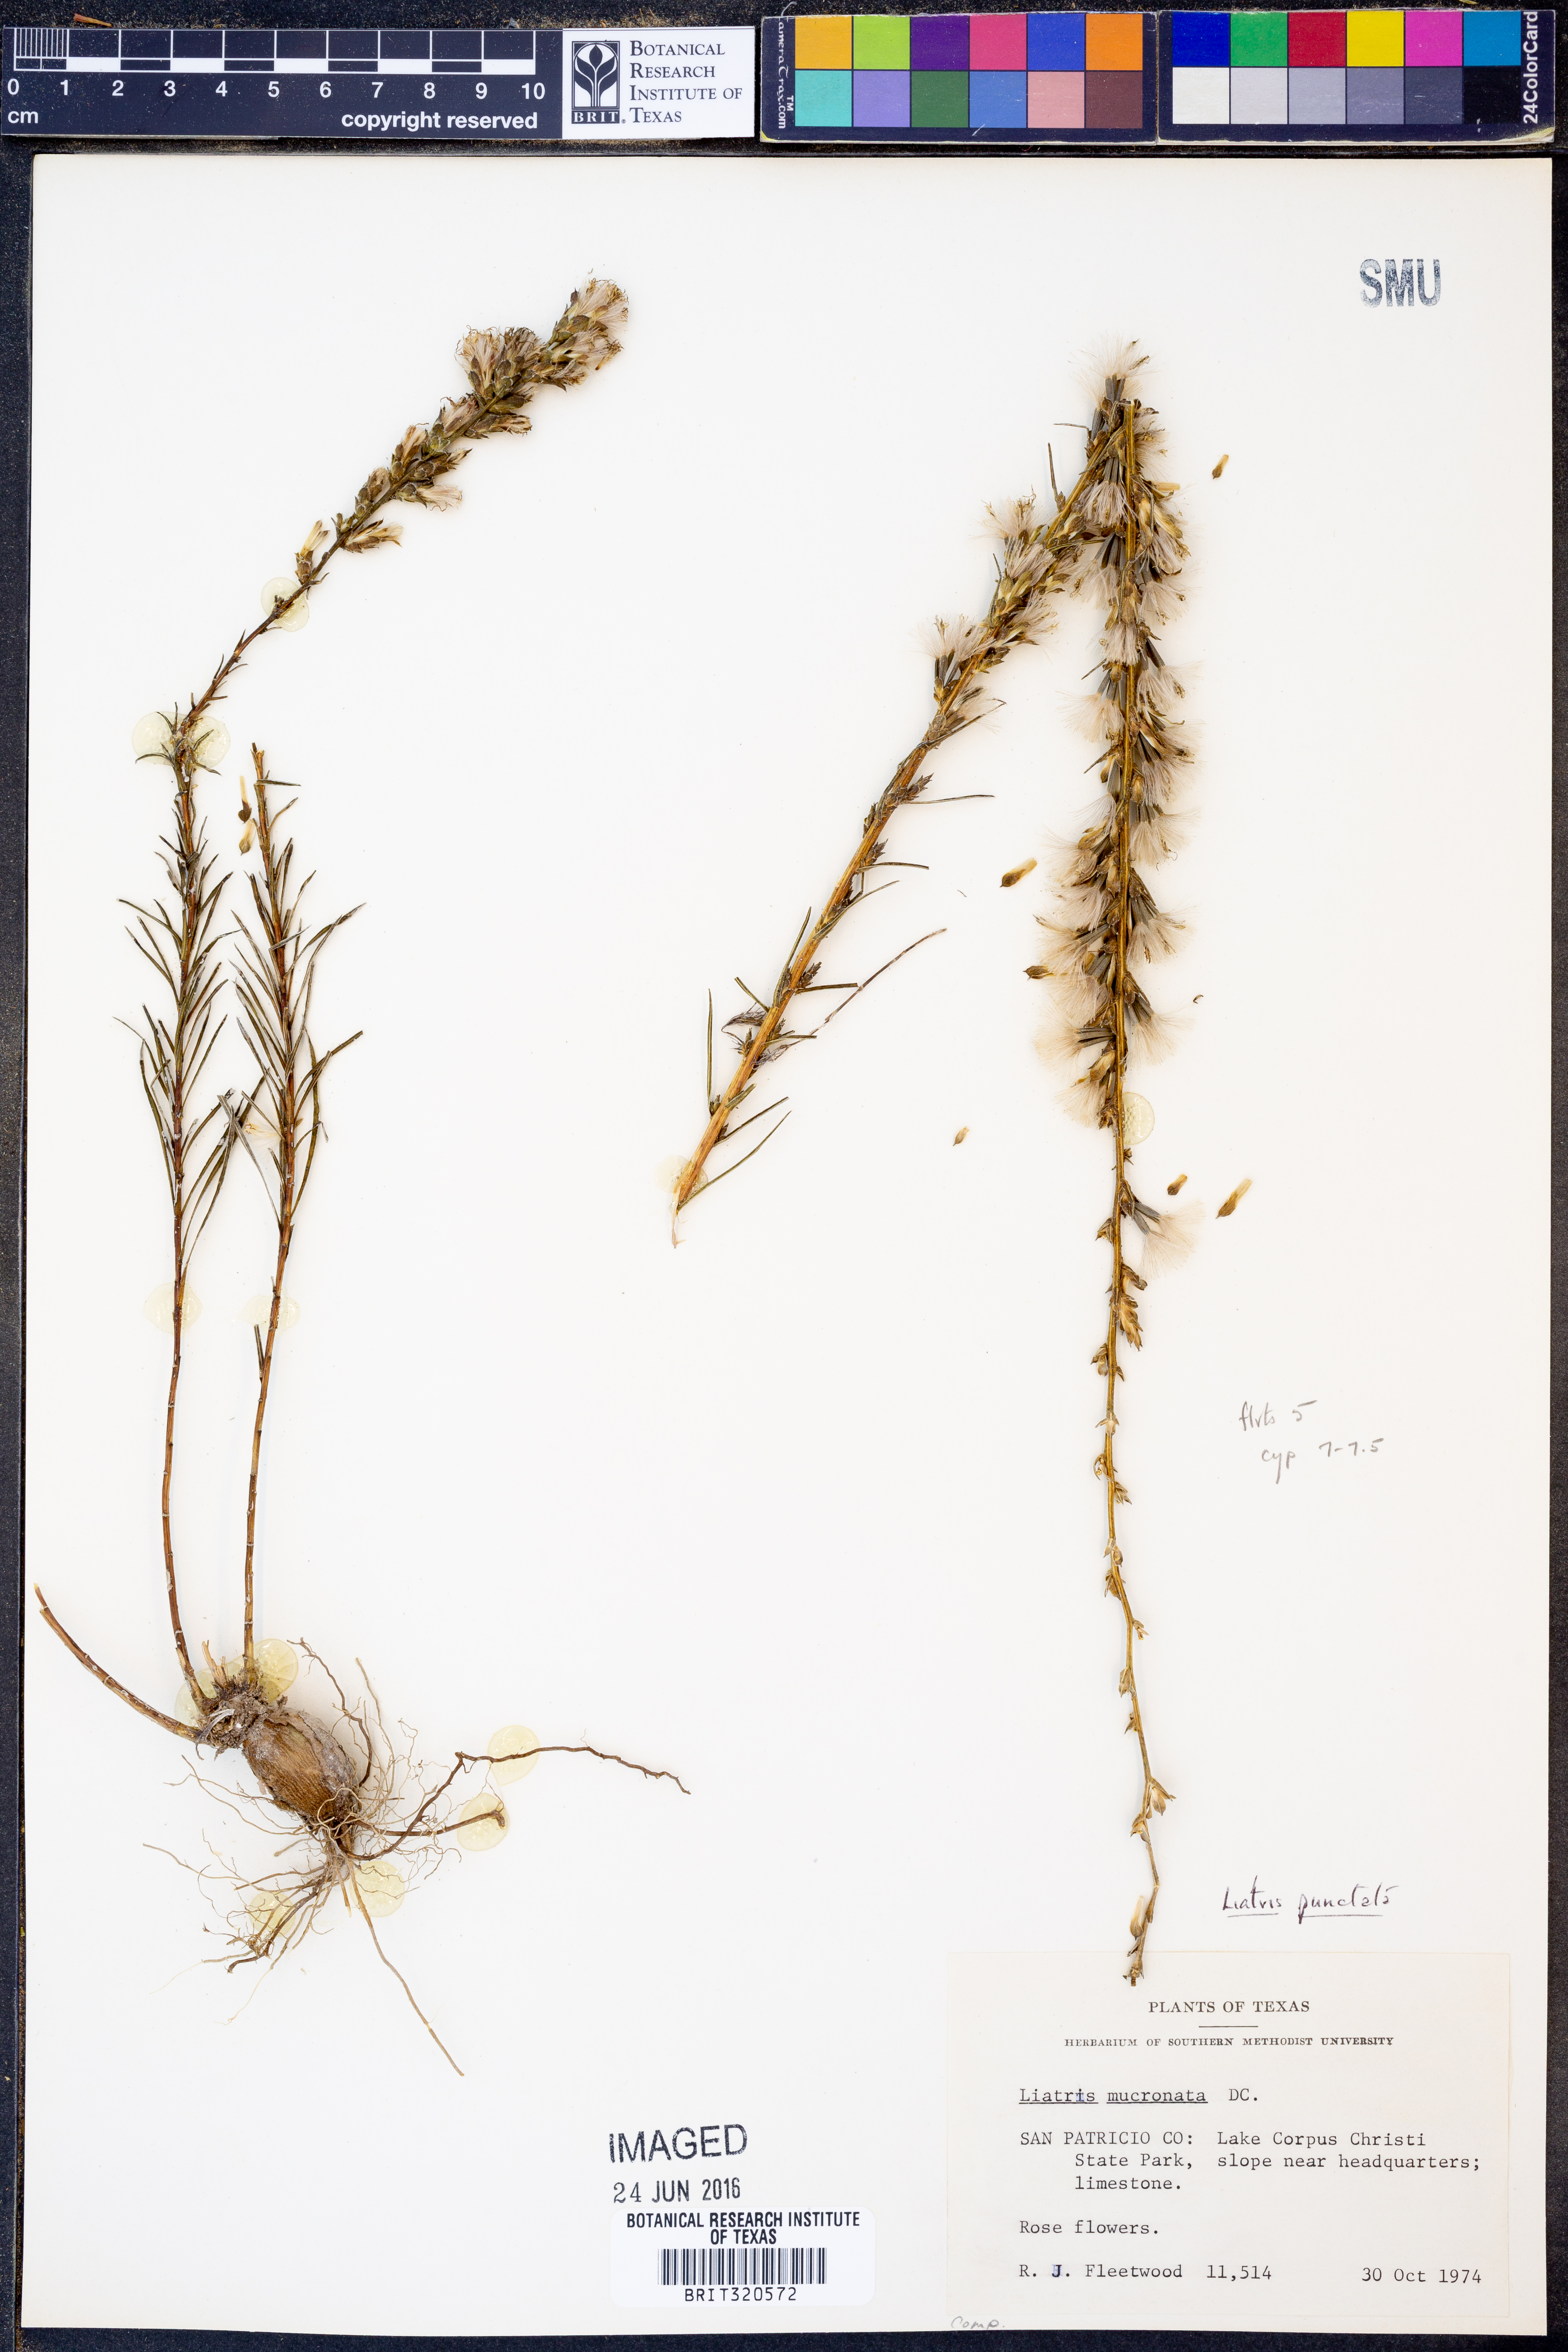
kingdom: Plantae
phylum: Tracheophyta
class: Magnoliopsida
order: Asterales
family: Asteraceae
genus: Liatris
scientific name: Liatris punctata
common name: Dotted gayfeather
